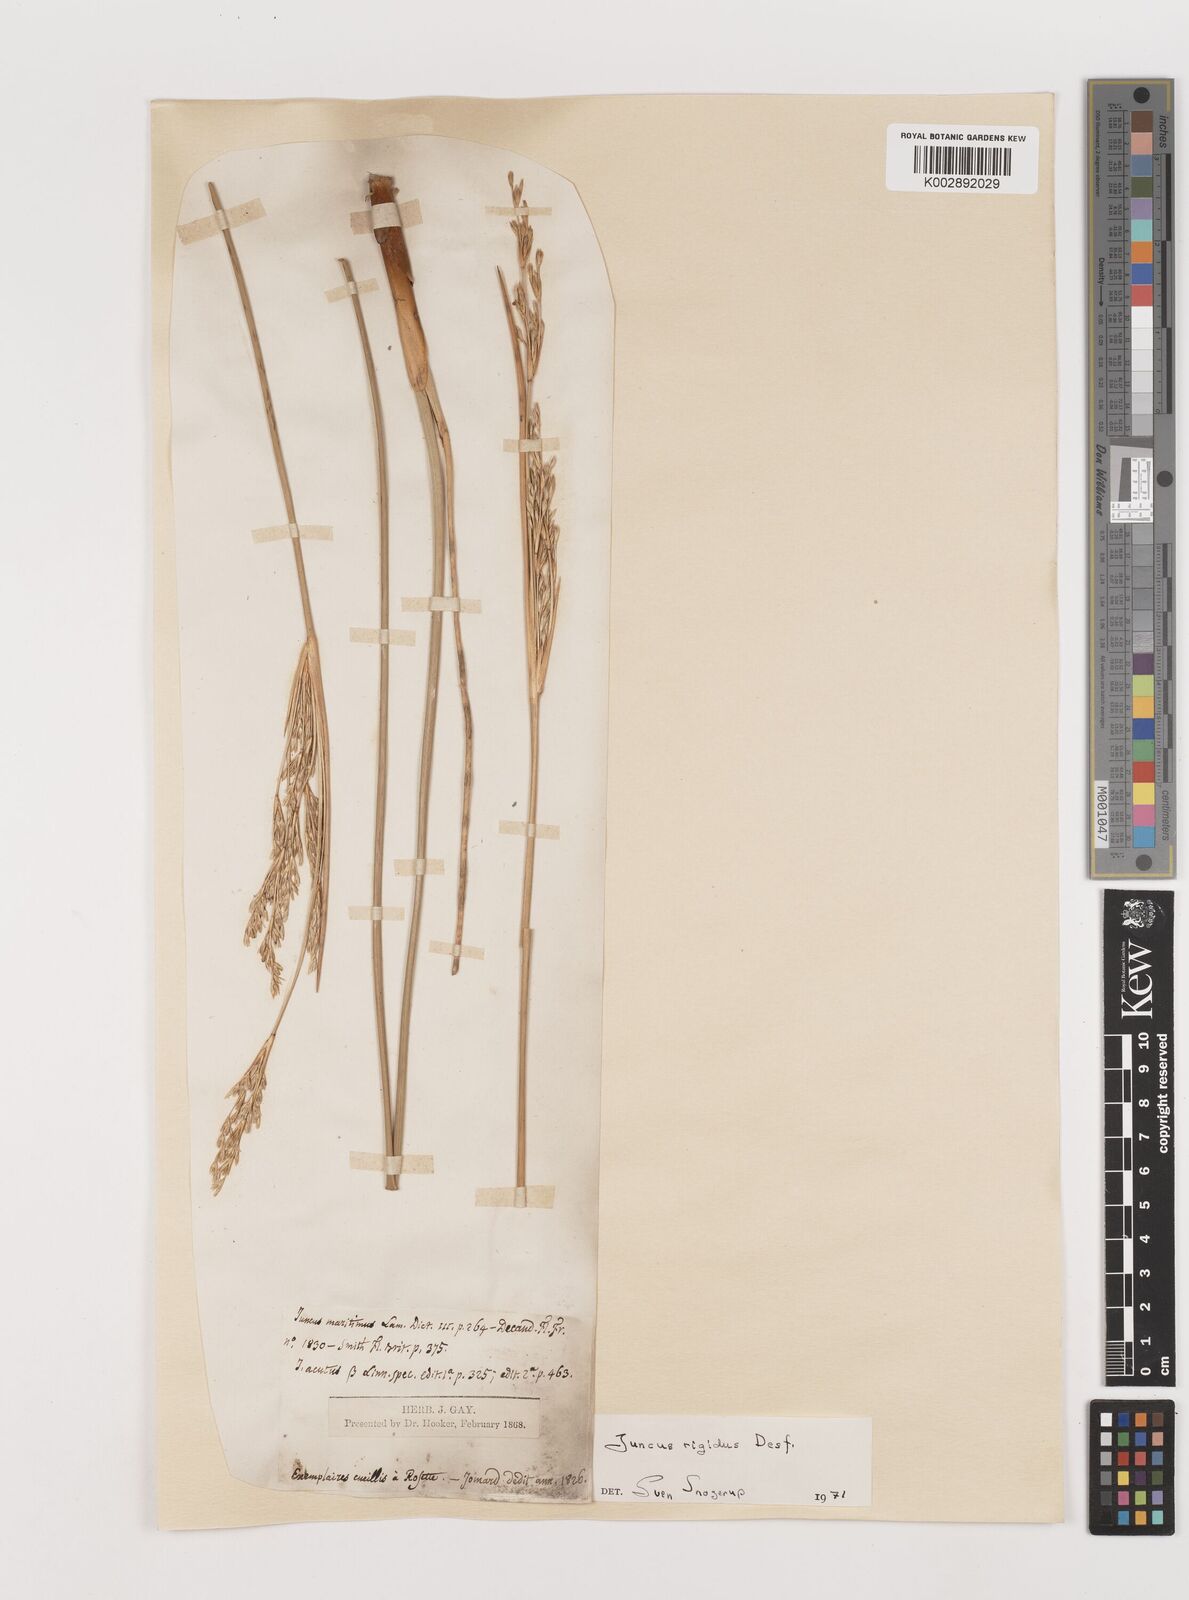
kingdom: Plantae
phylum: Tracheophyta
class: Liliopsida
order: Poales
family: Juncaceae
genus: Juncus
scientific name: Juncus rigidus
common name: Hard sea rush
